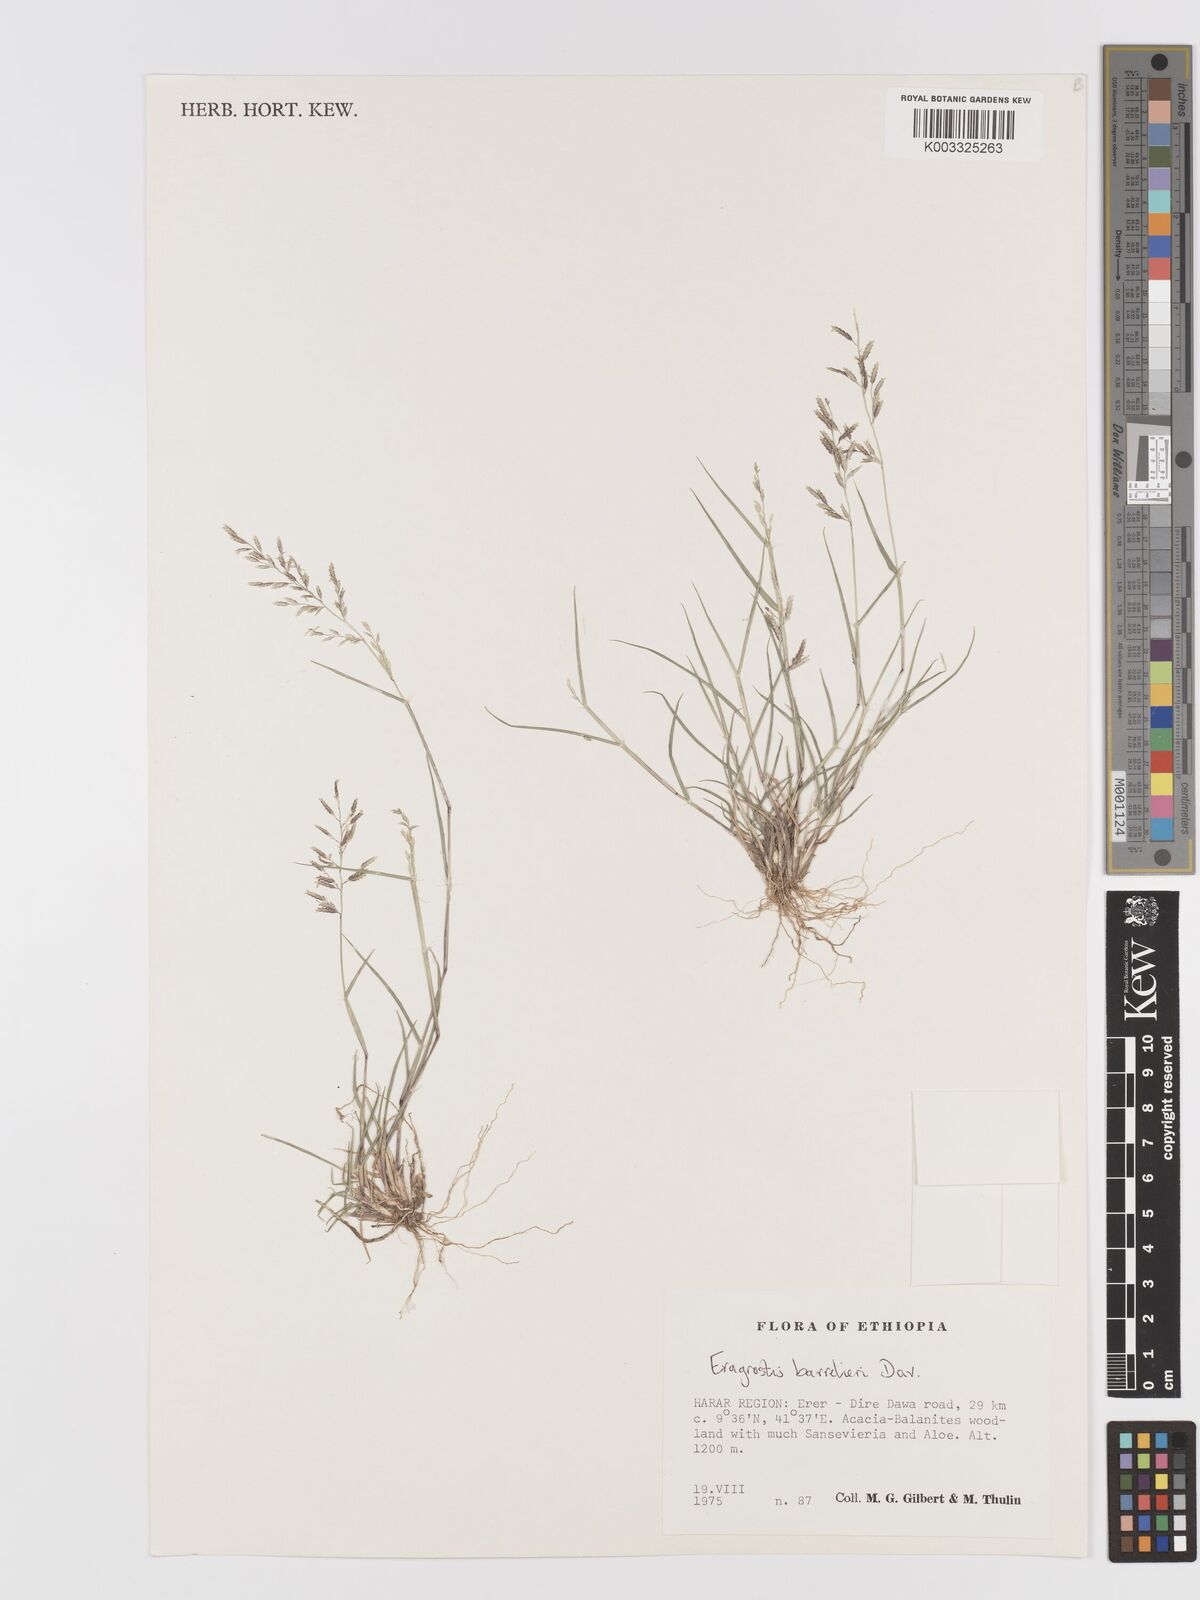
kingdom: Plantae
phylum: Tracheophyta
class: Liliopsida
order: Poales
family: Poaceae
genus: Eragrostis
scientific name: Eragrostis barrelieri
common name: Mediterranean lovegrass
